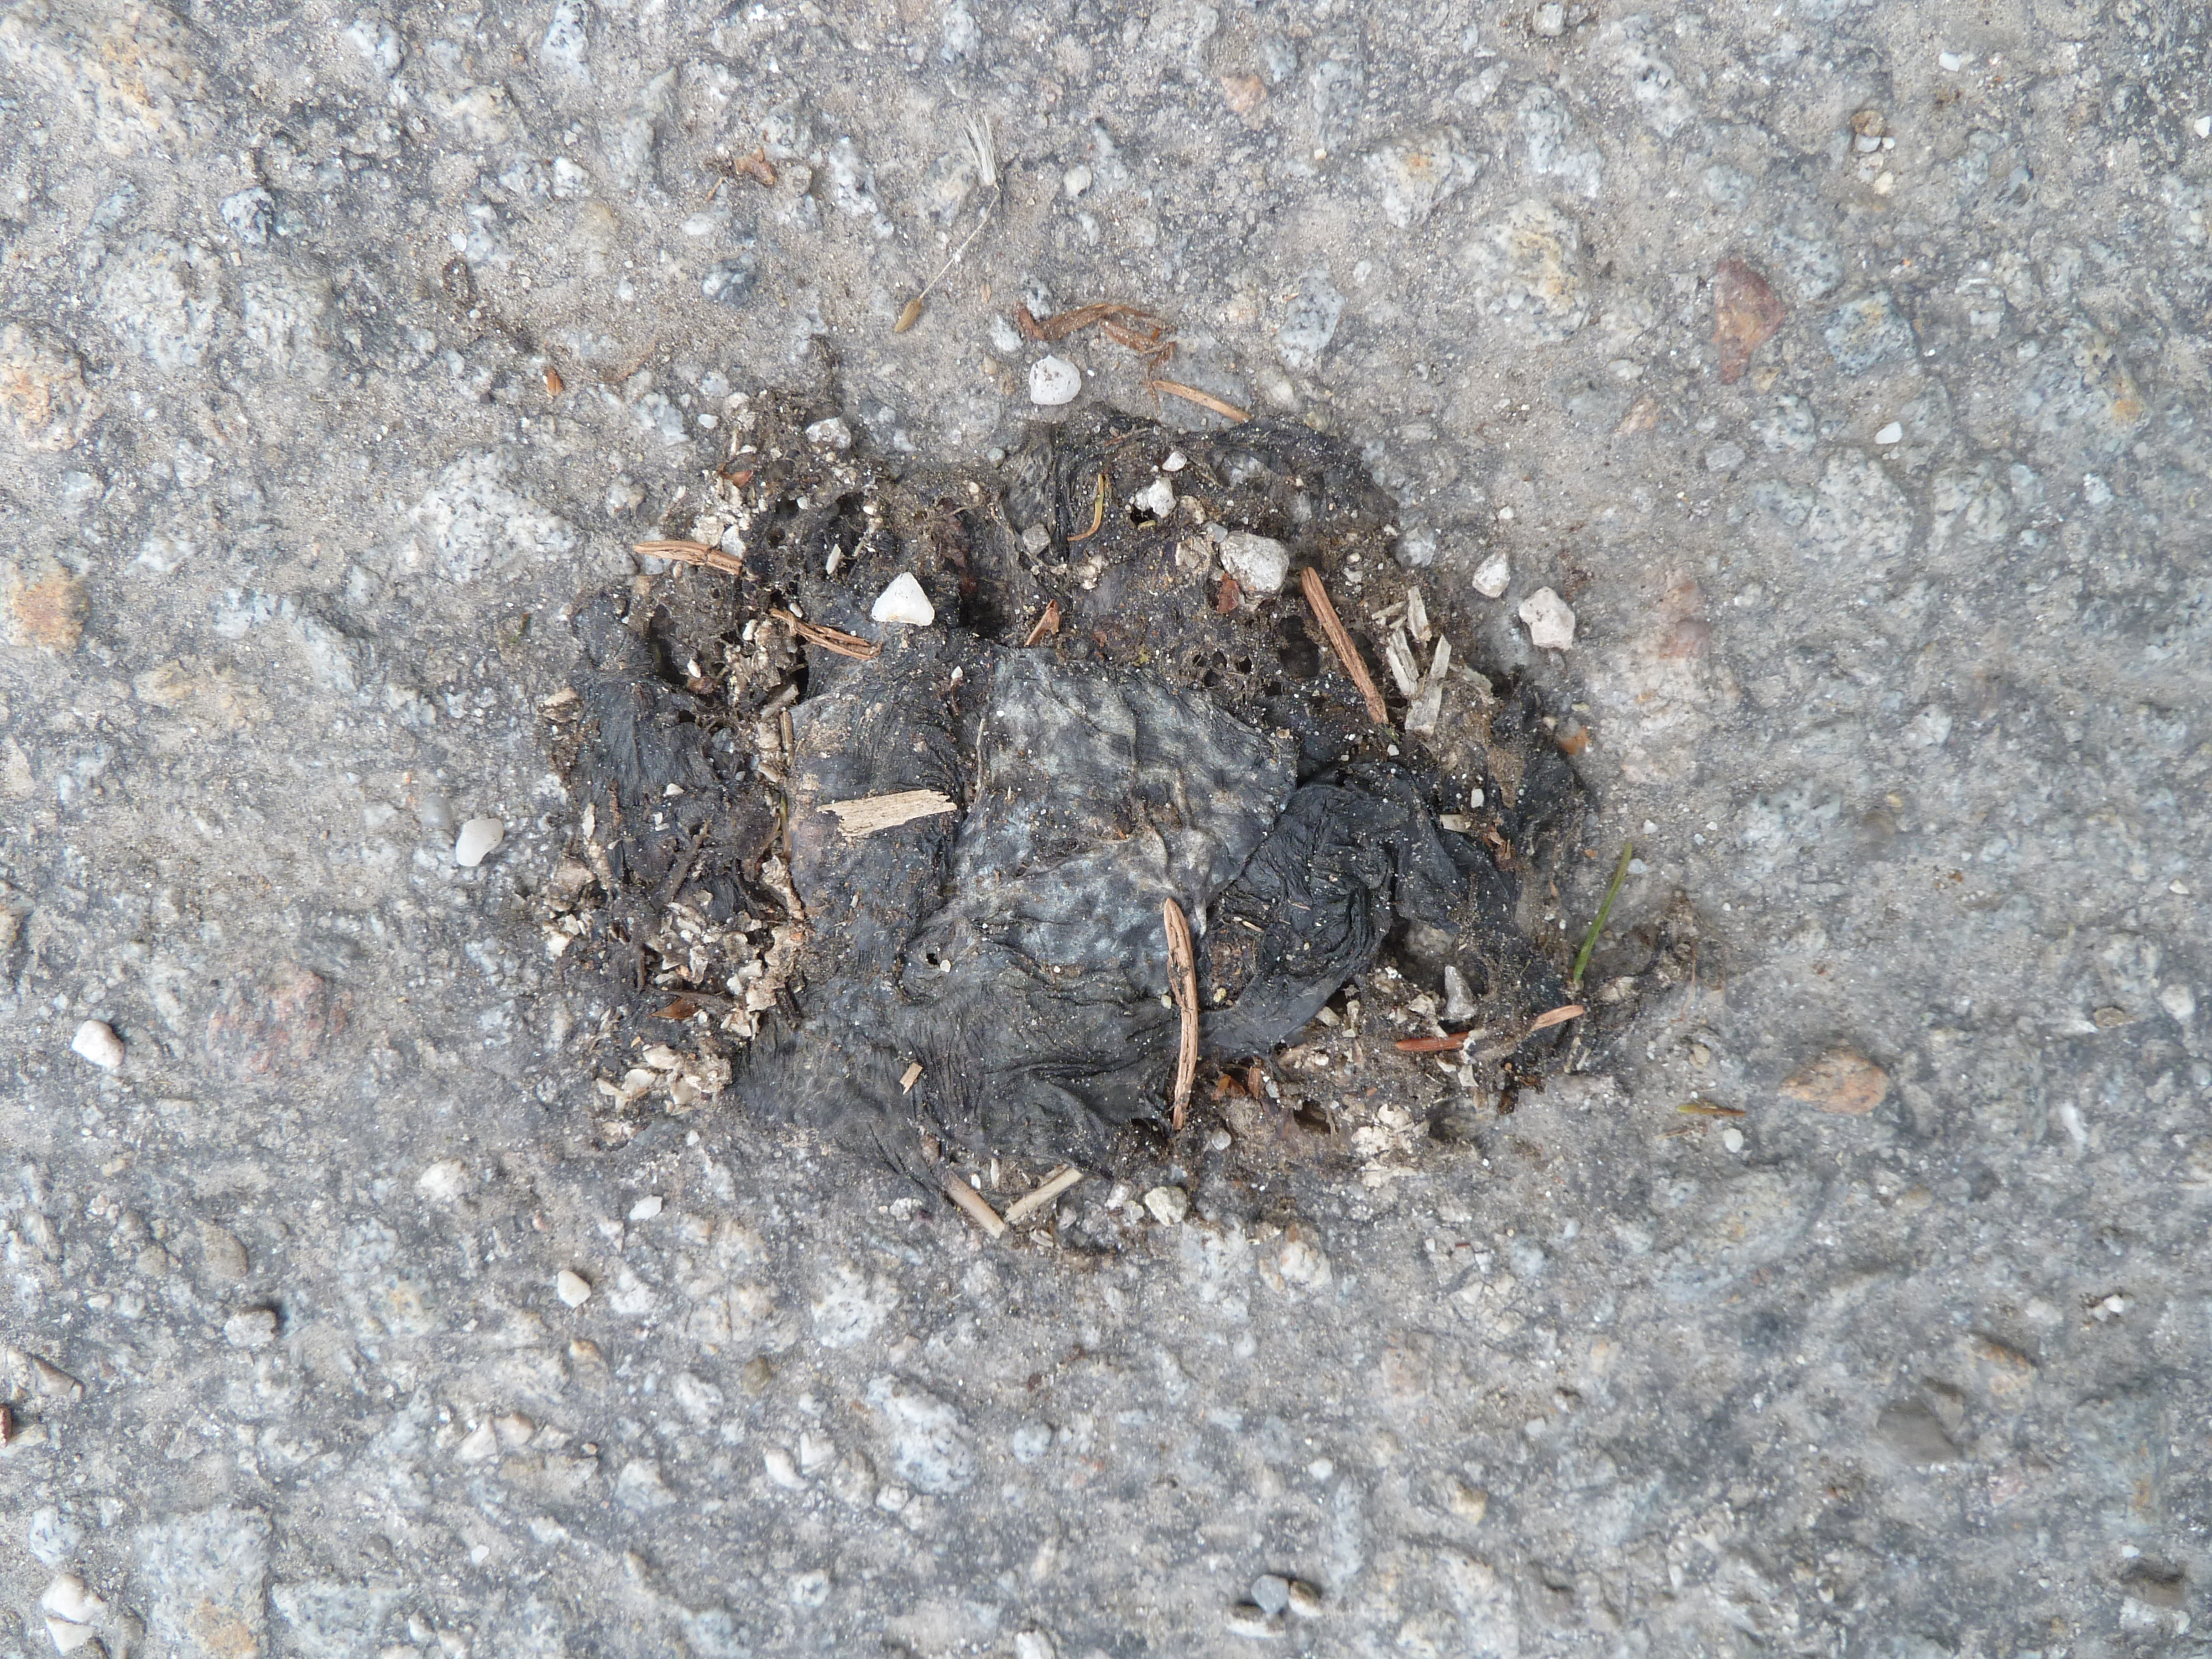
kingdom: Animalia
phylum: Chordata
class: Amphibia
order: Anura
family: Bufonidae
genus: Bufo
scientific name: Bufo bufo
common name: Common toad
